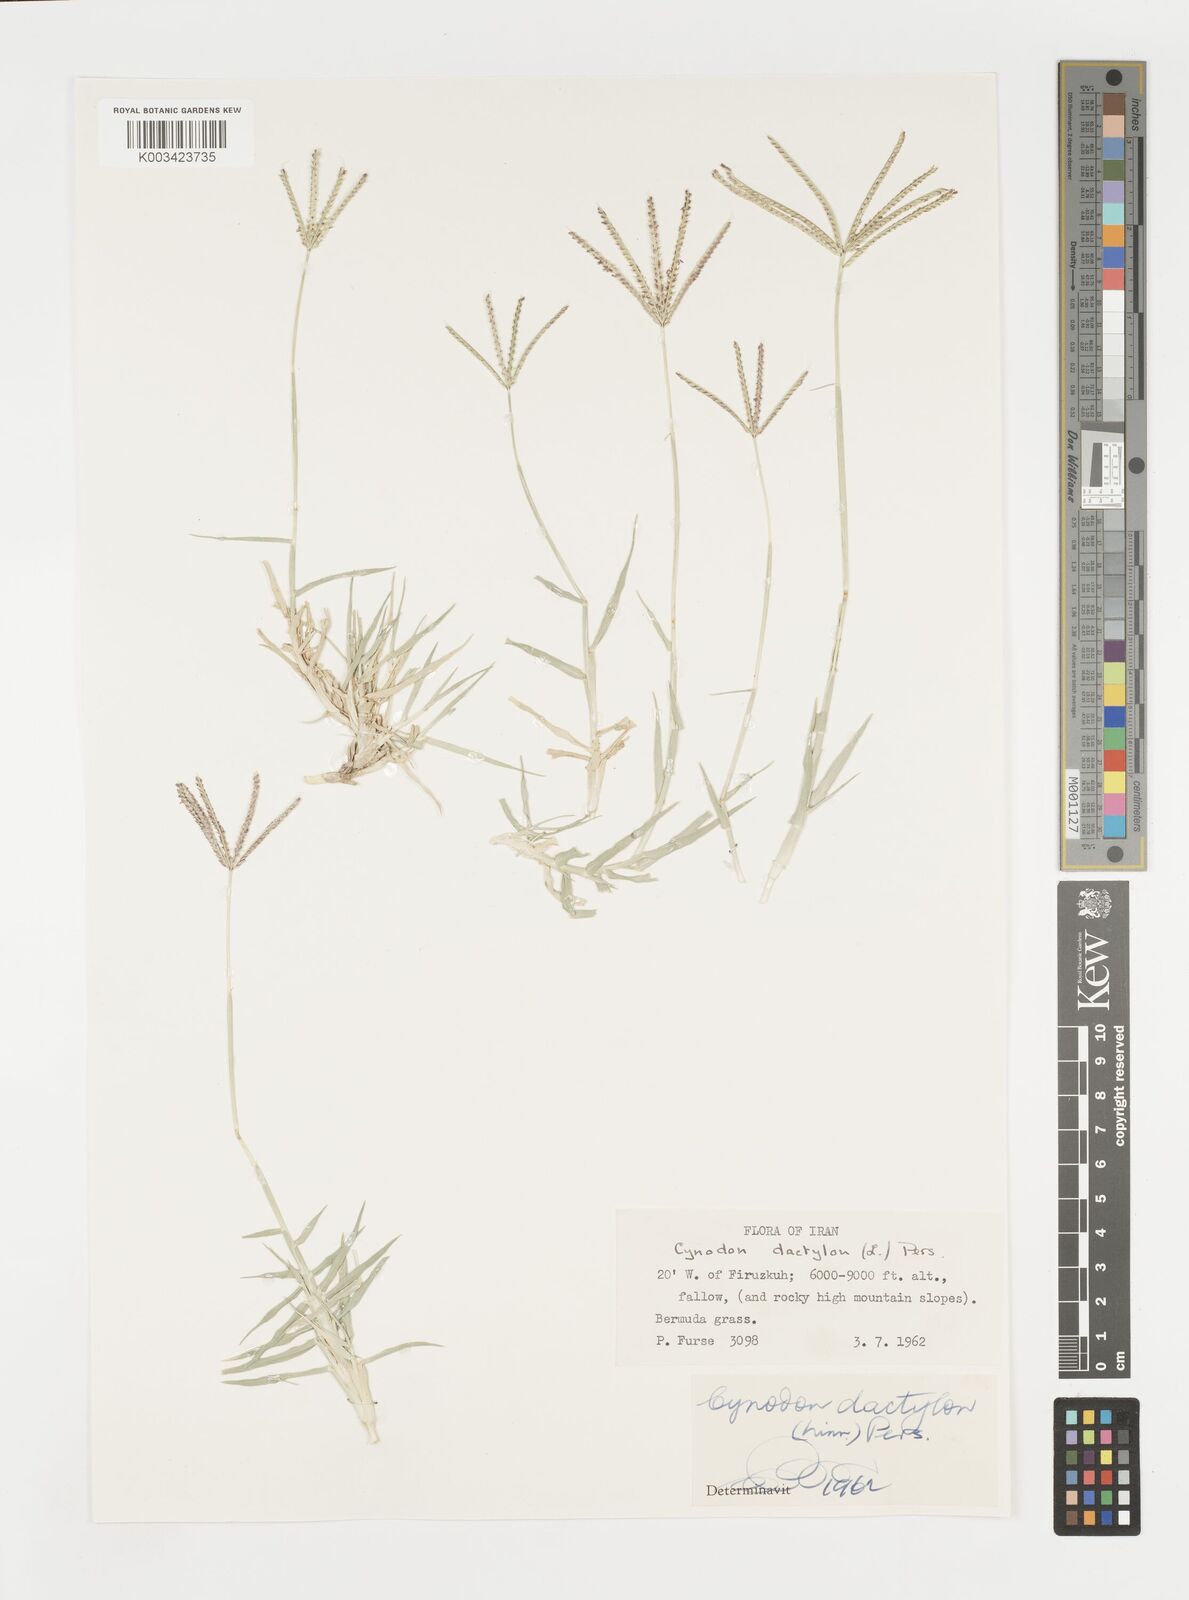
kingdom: Plantae
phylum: Tracheophyta
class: Liliopsida
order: Poales
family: Poaceae
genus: Cynodon
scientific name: Cynodon dactylon
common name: Bermuda grass
